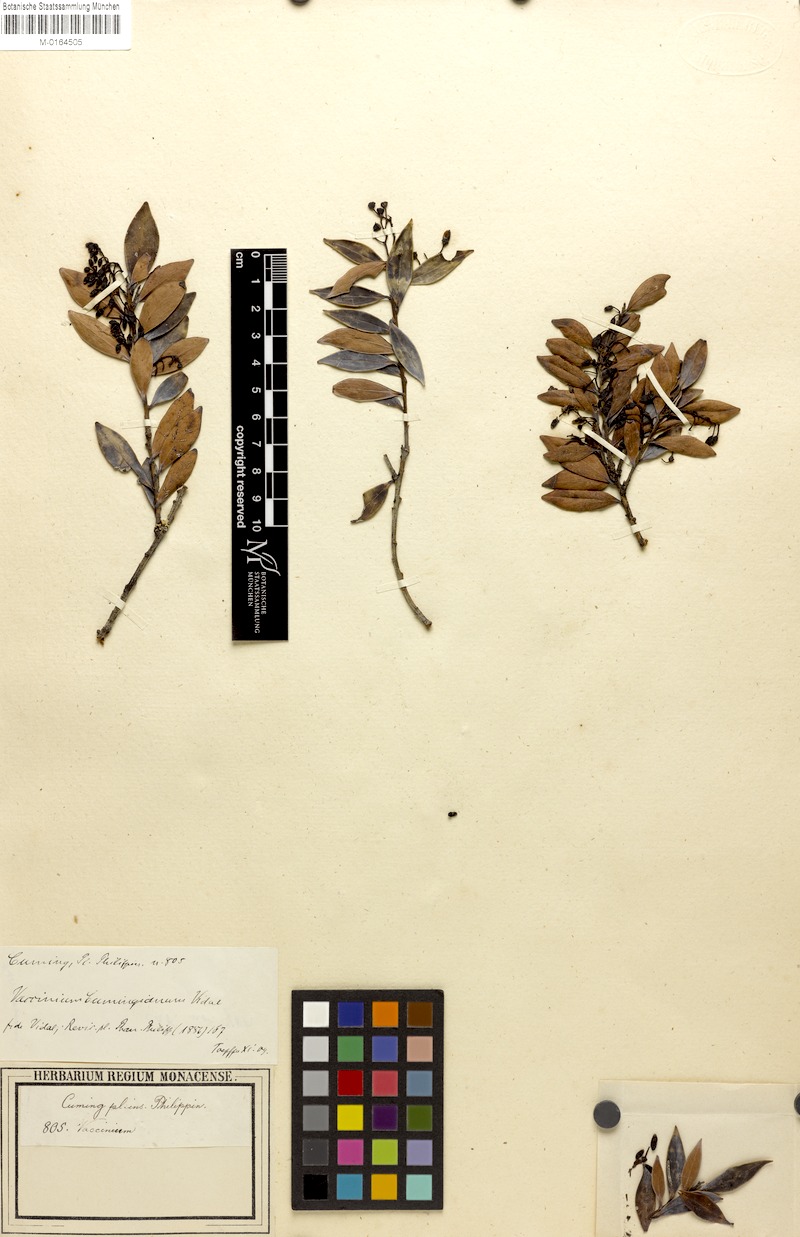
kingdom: Plantae
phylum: Tracheophyta
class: Magnoliopsida
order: Ericales
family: Ericaceae
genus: Vaccinium
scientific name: Vaccinium cumingianum
